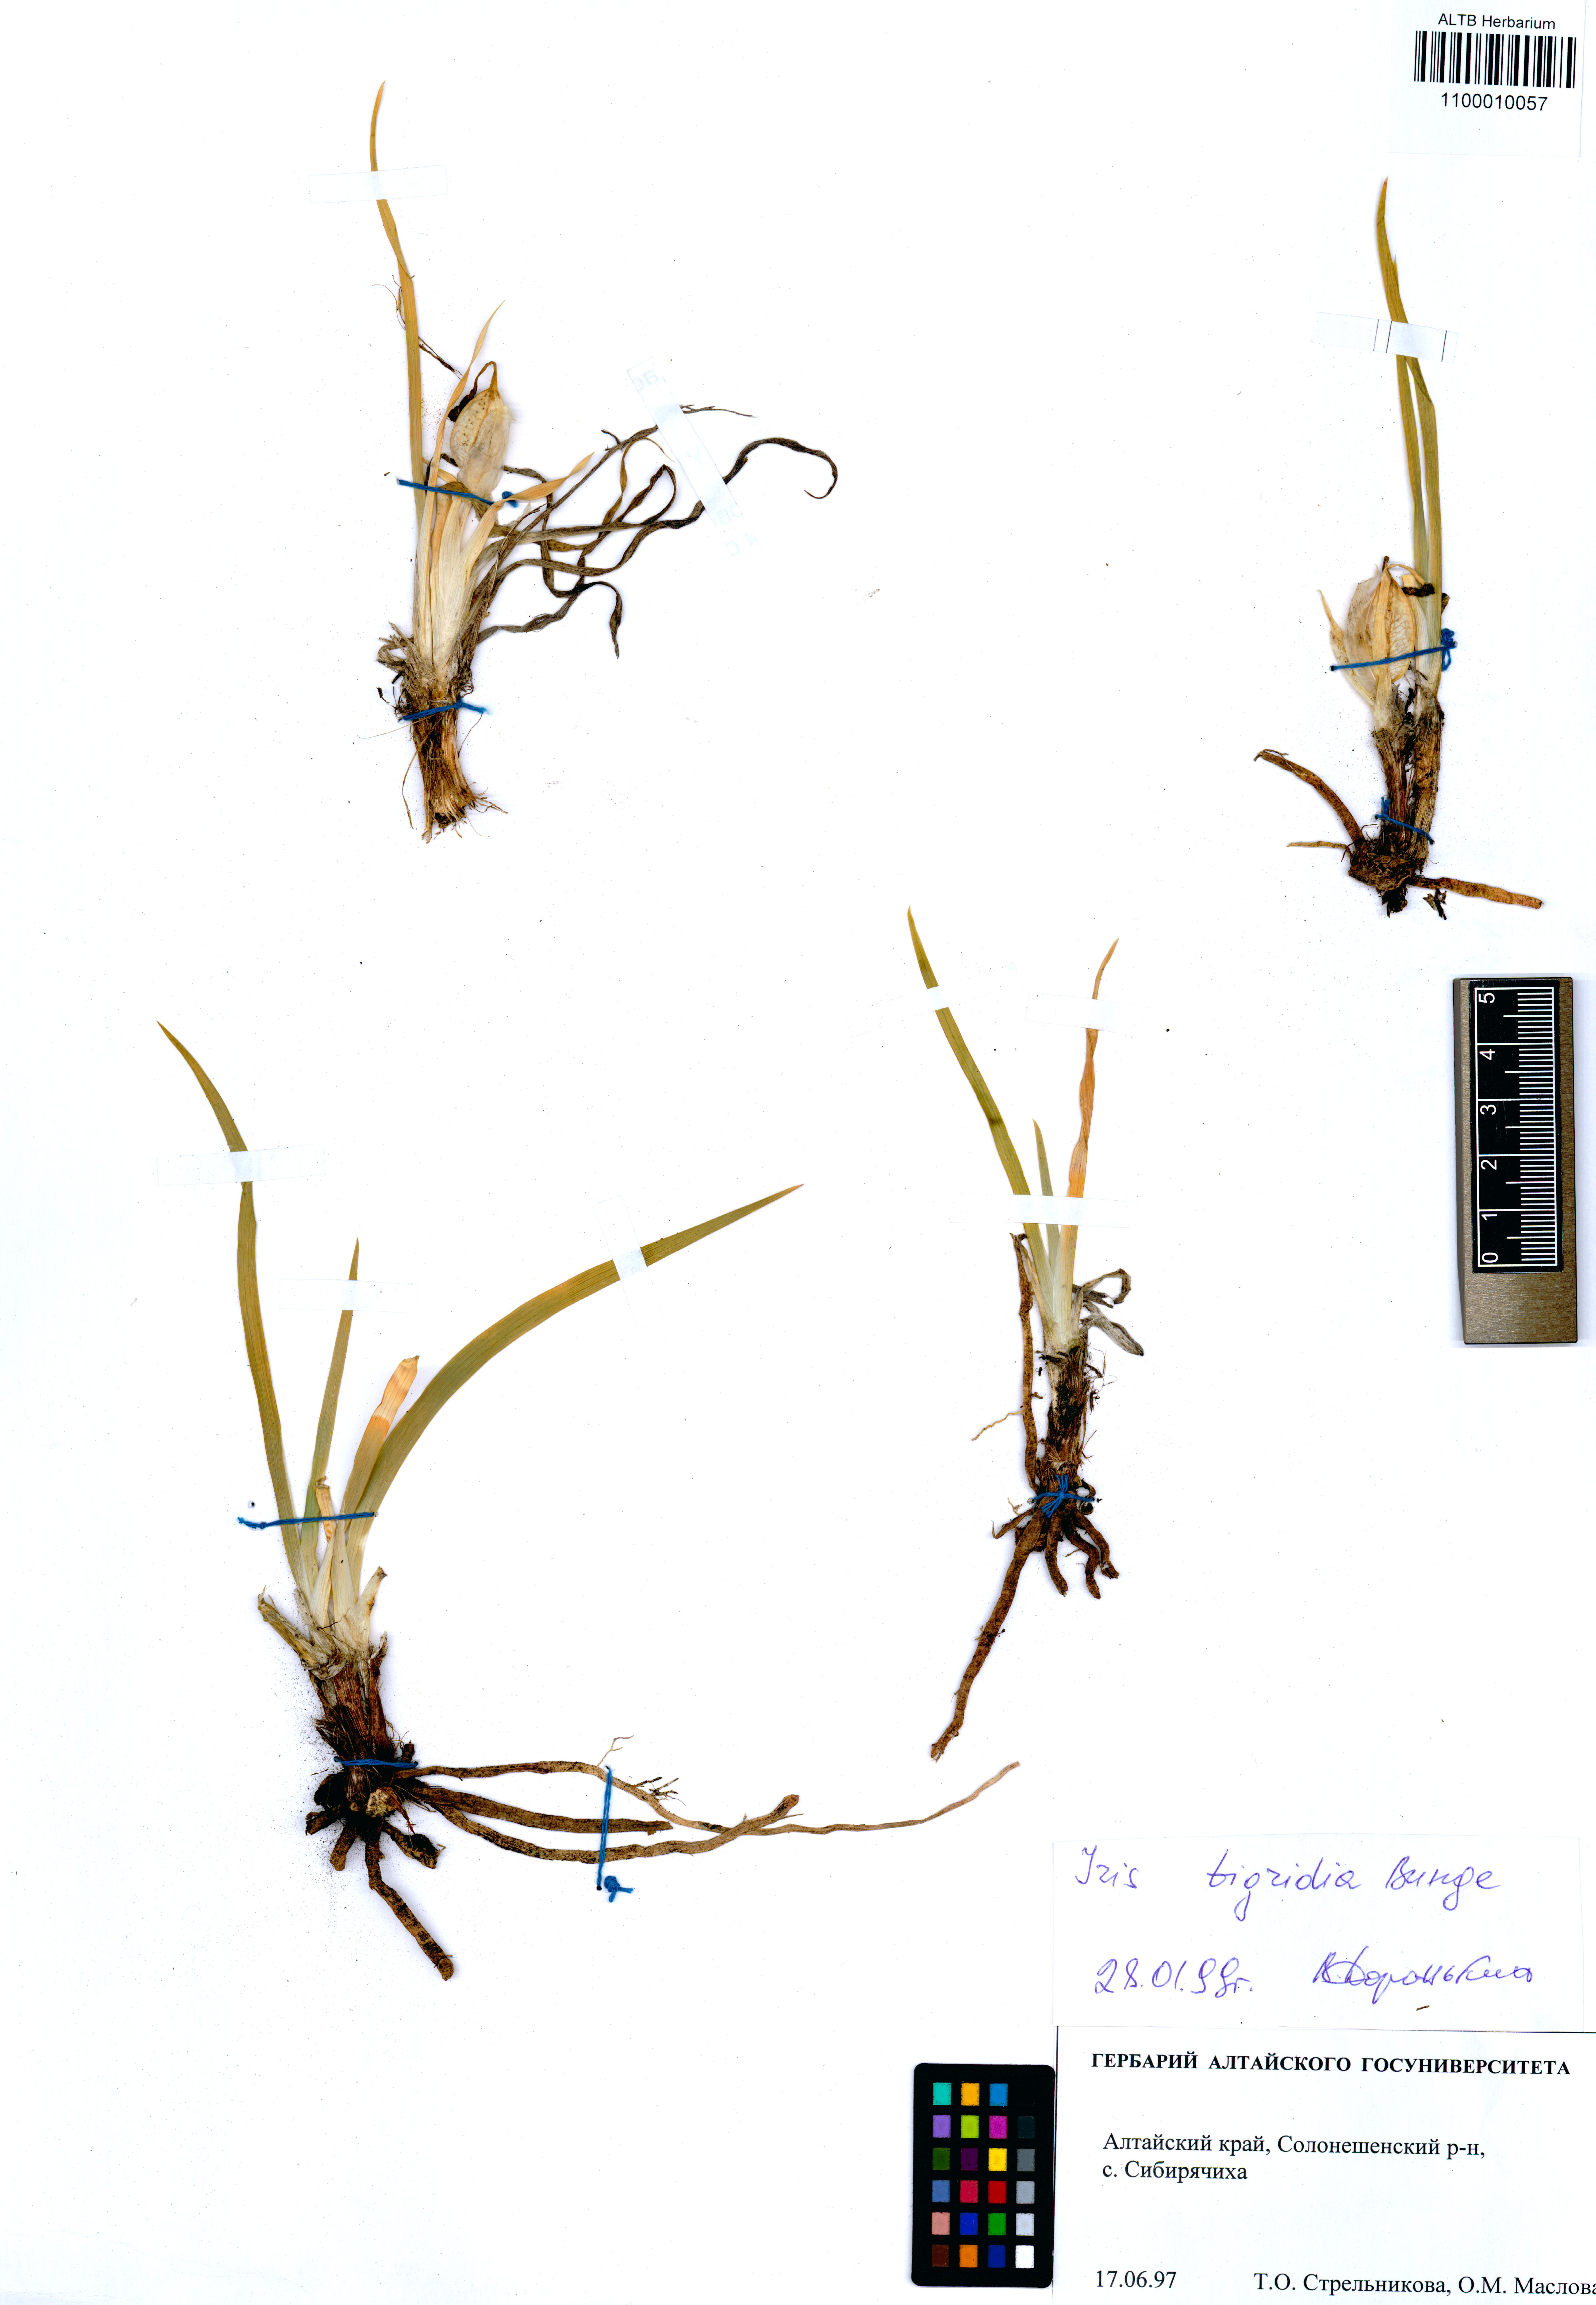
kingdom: Plantae
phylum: Tracheophyta
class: Liliopsida
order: Asparagales
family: Iridaceae
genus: Iris
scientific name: Iris glaucescens
